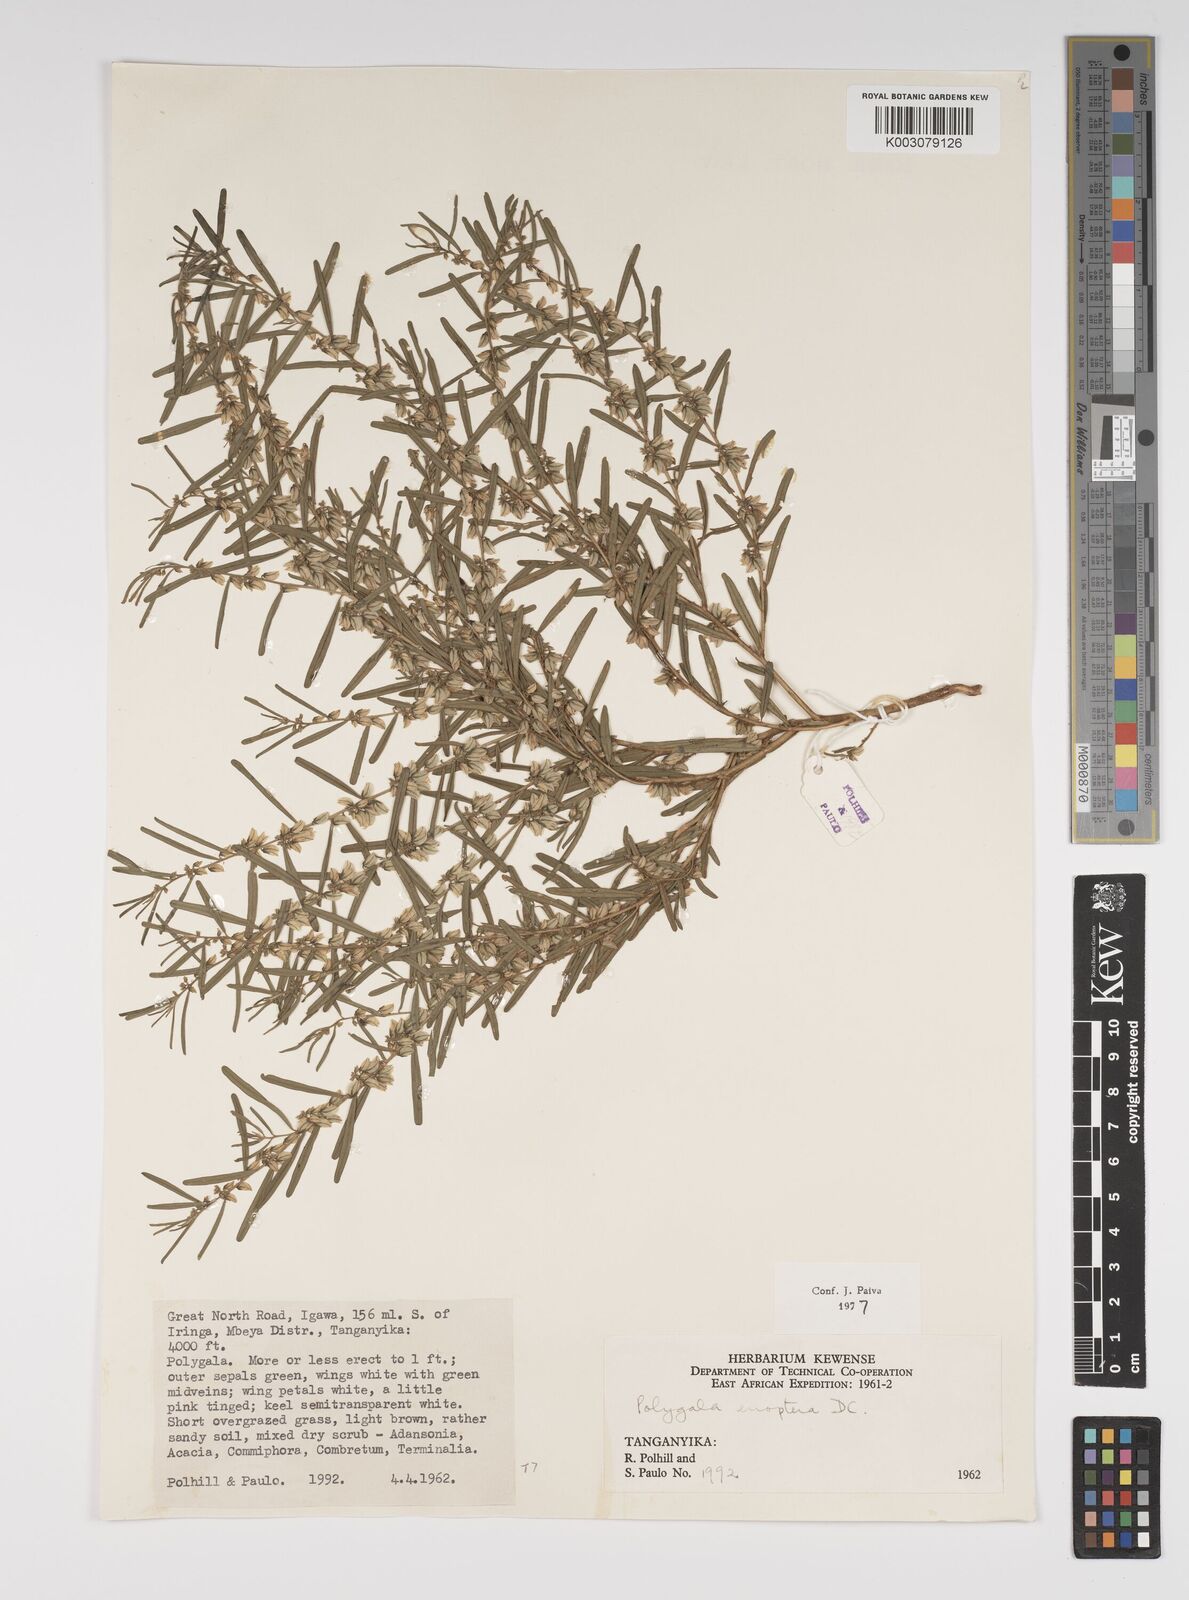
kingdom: Plantae
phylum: Tracheophyta
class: Magnoliopsida
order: Fabales
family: Polygalaceae
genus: Polygala
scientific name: Polygala erioptera
